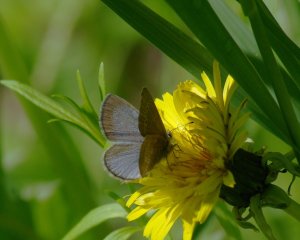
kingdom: Animalia
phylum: Arthropoda
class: Insecta
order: Lepidoptera
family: Lycaenidae
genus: Glaucopsyche
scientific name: Glaucopsyche lygdamus
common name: Silvery Blue
